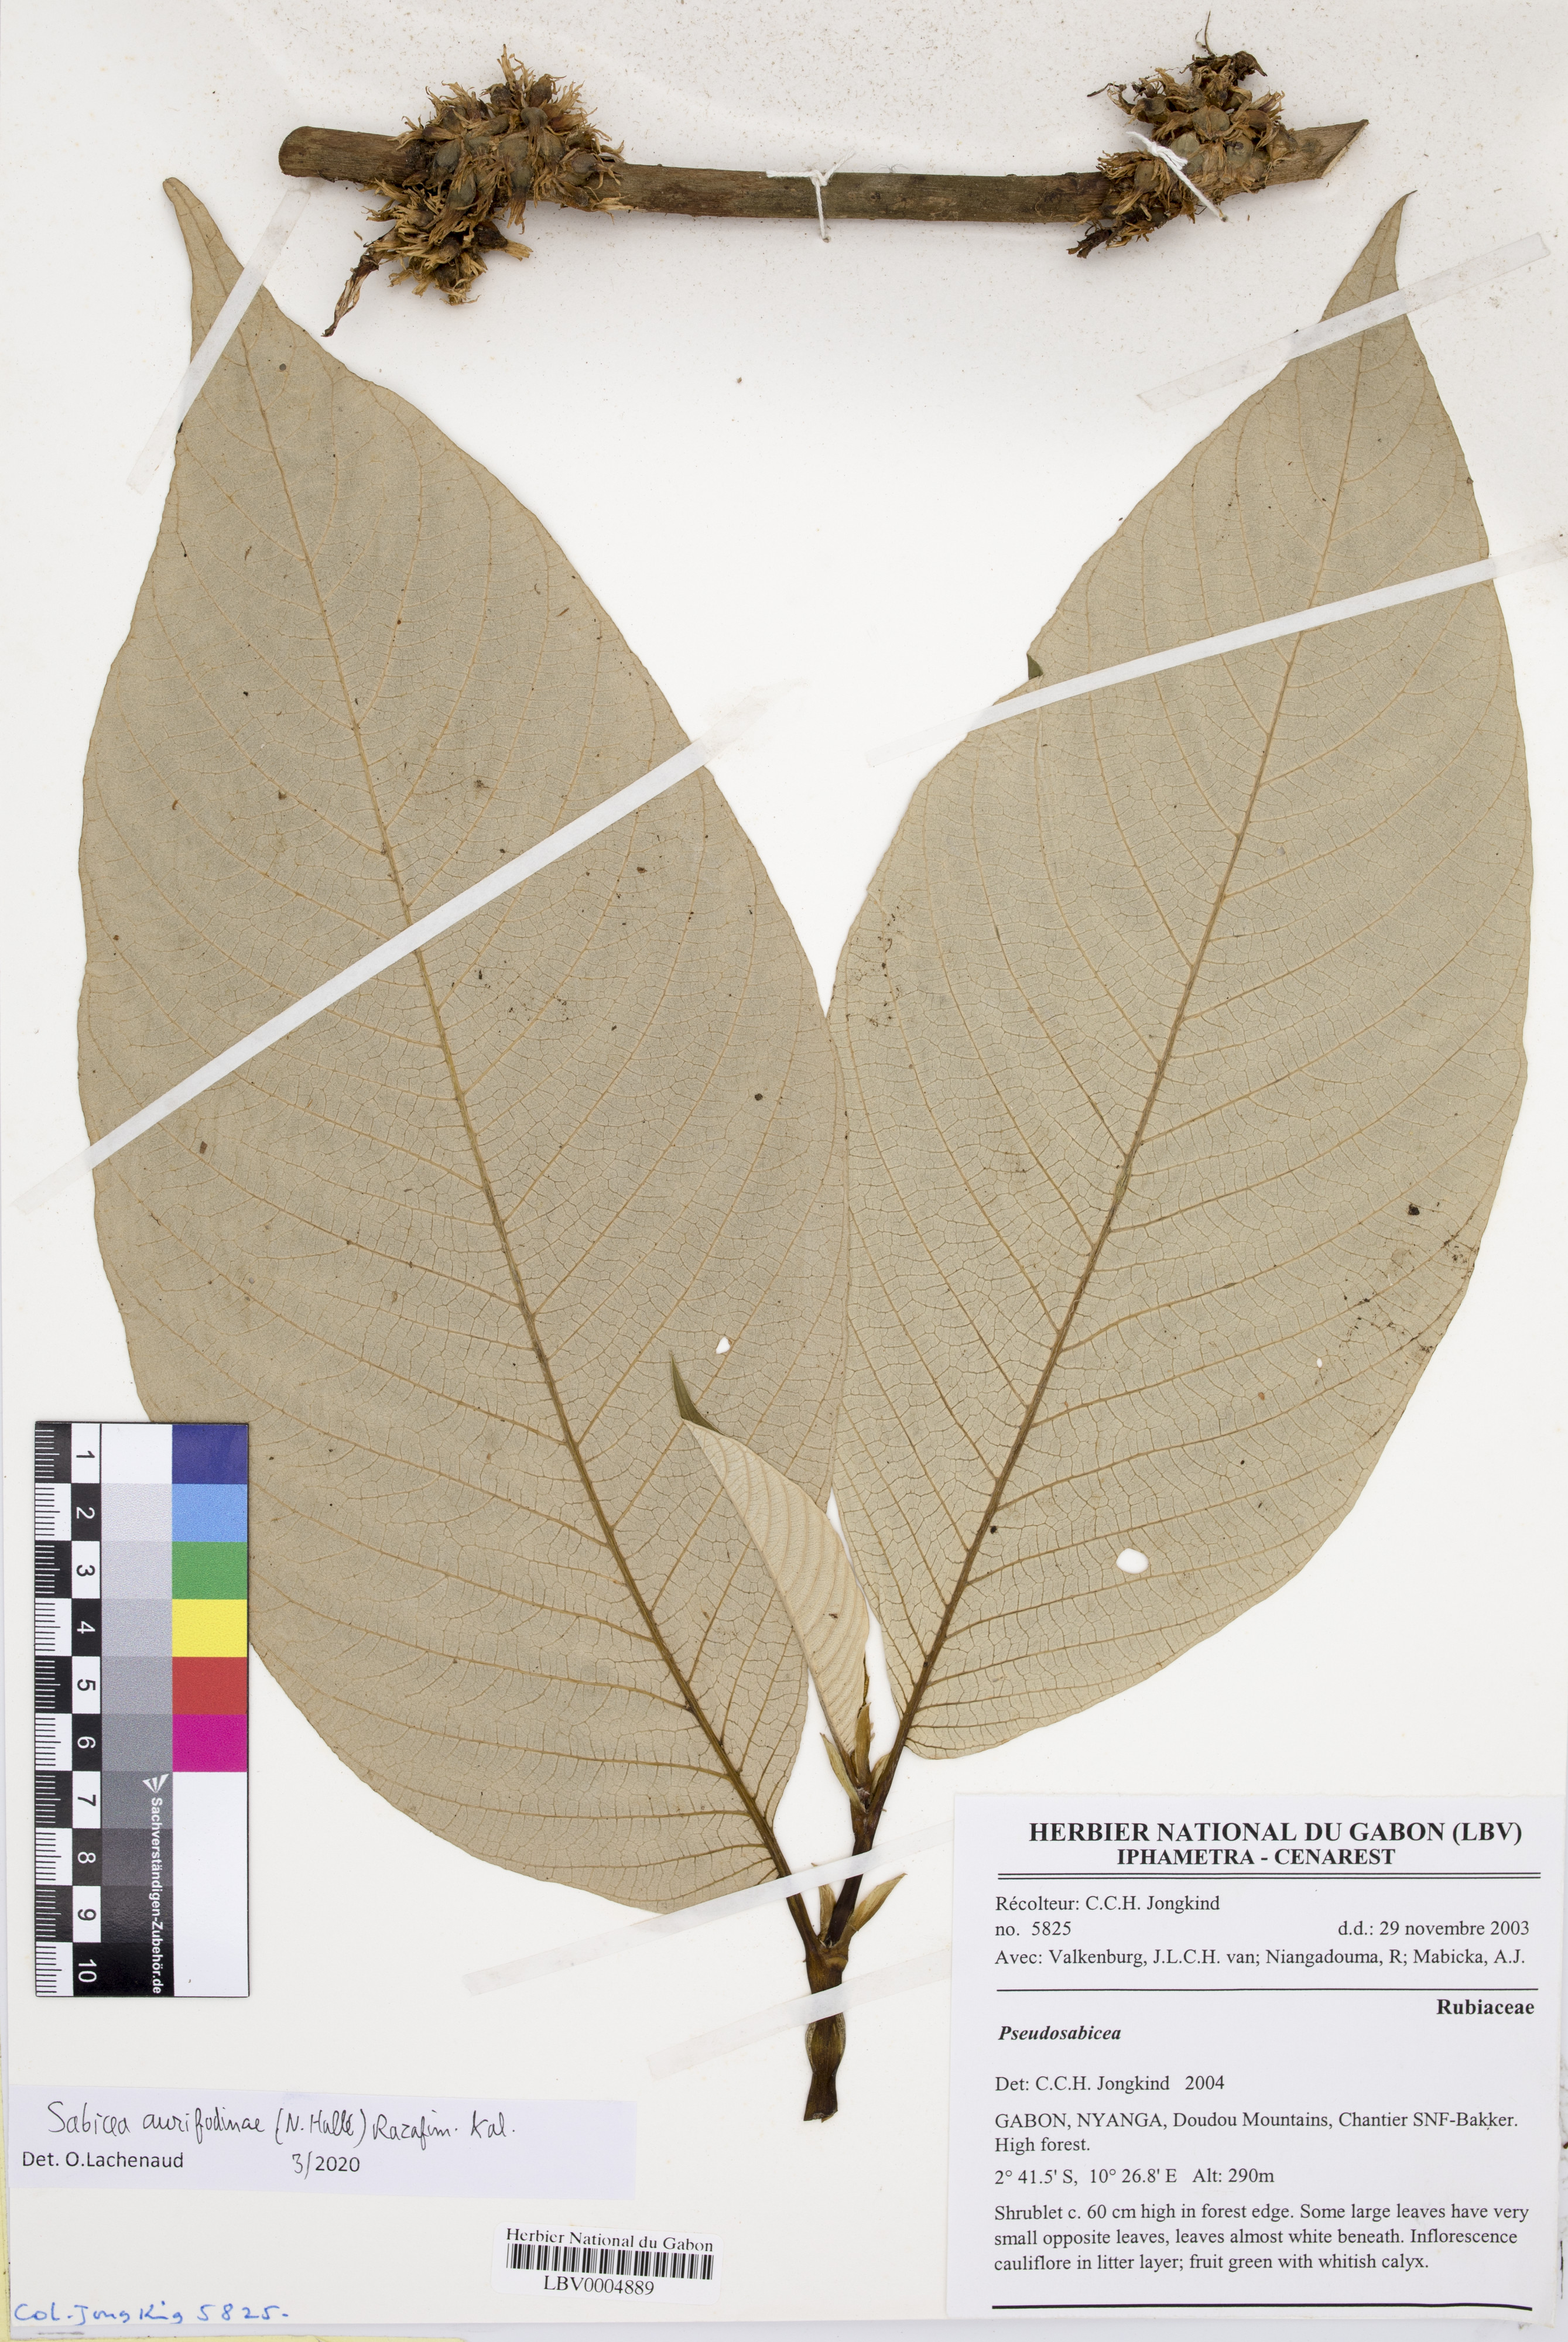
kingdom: Plantae
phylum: Tracheophyta
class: Magnoliopsida
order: Gentianales
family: Rubiaceae
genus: Sabicea
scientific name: Sabicea aurifodinae
